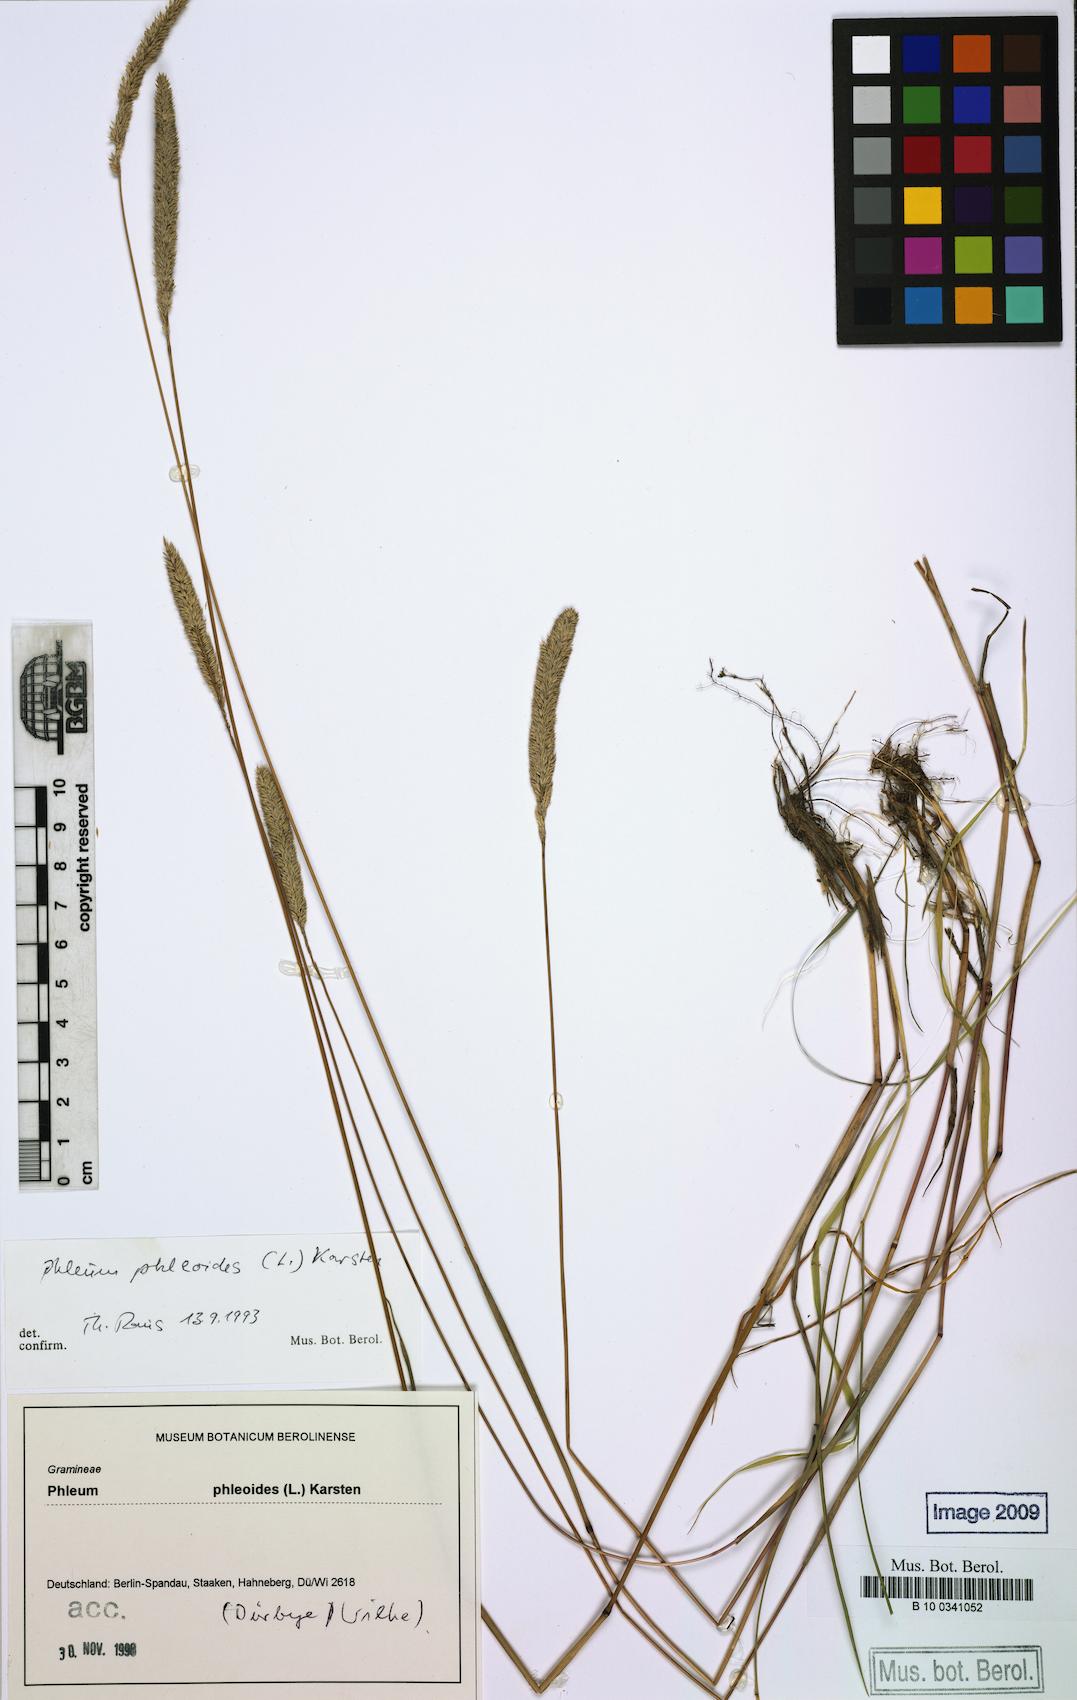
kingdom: Plantae
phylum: Tracheophyta
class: Liliopsida
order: Poales
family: Poaceae
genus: Phleum
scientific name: Phleum phleoides
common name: Purple-stem cat's-tail
